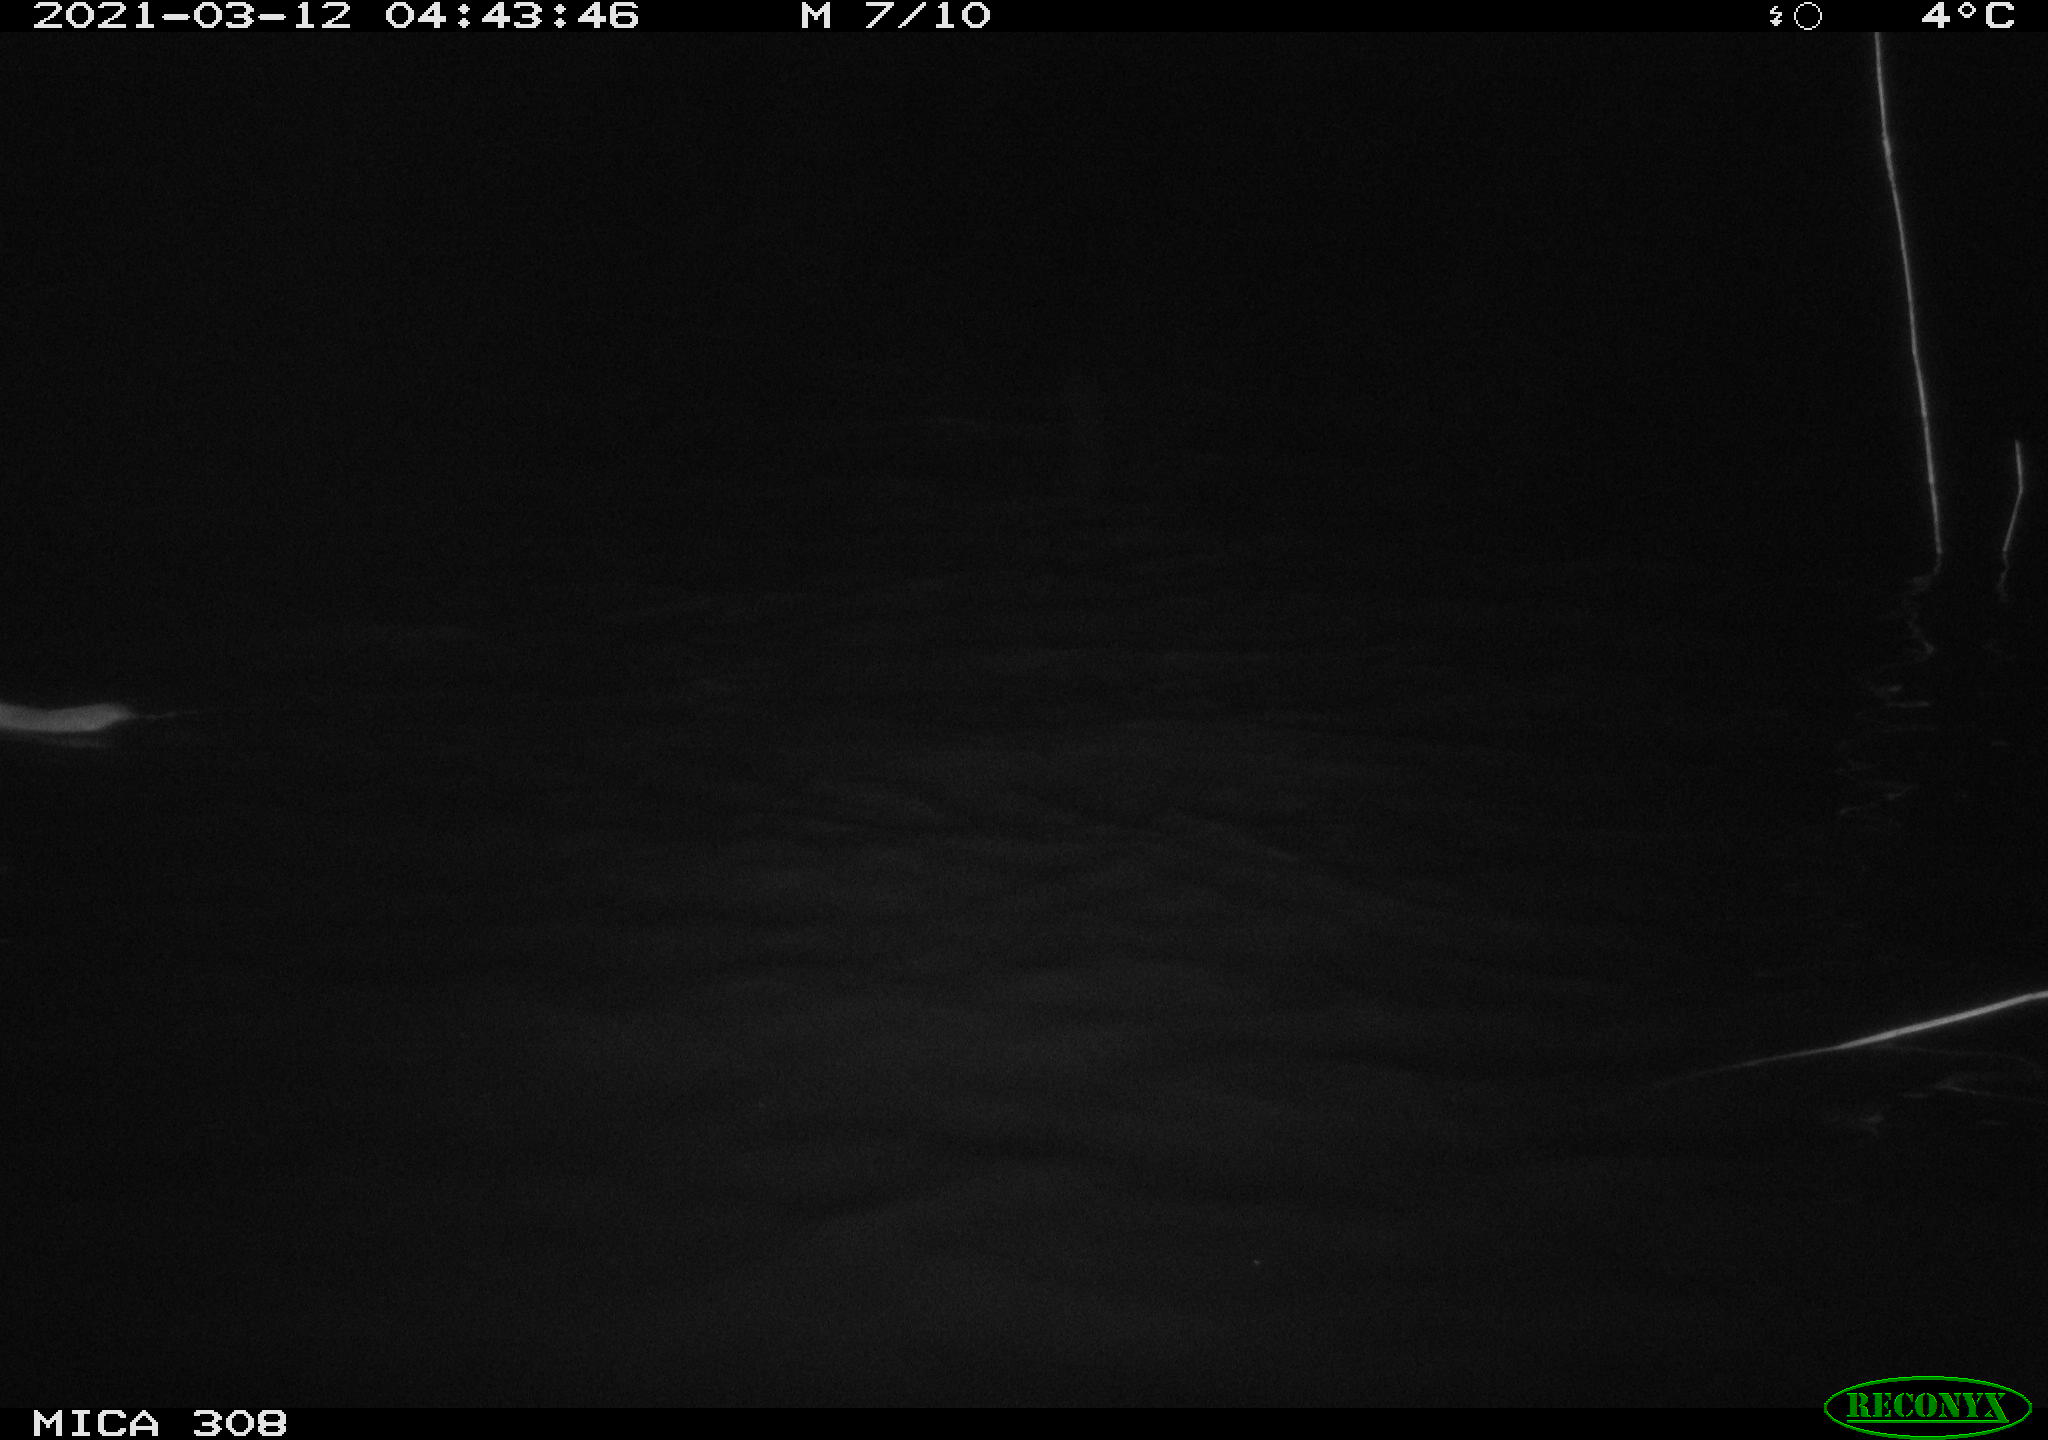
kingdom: Animalia
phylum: Chordata
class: Mammalia
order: Rodentia
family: Muridae
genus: Rattus
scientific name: Rattus norvegicus
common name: Brown rat
